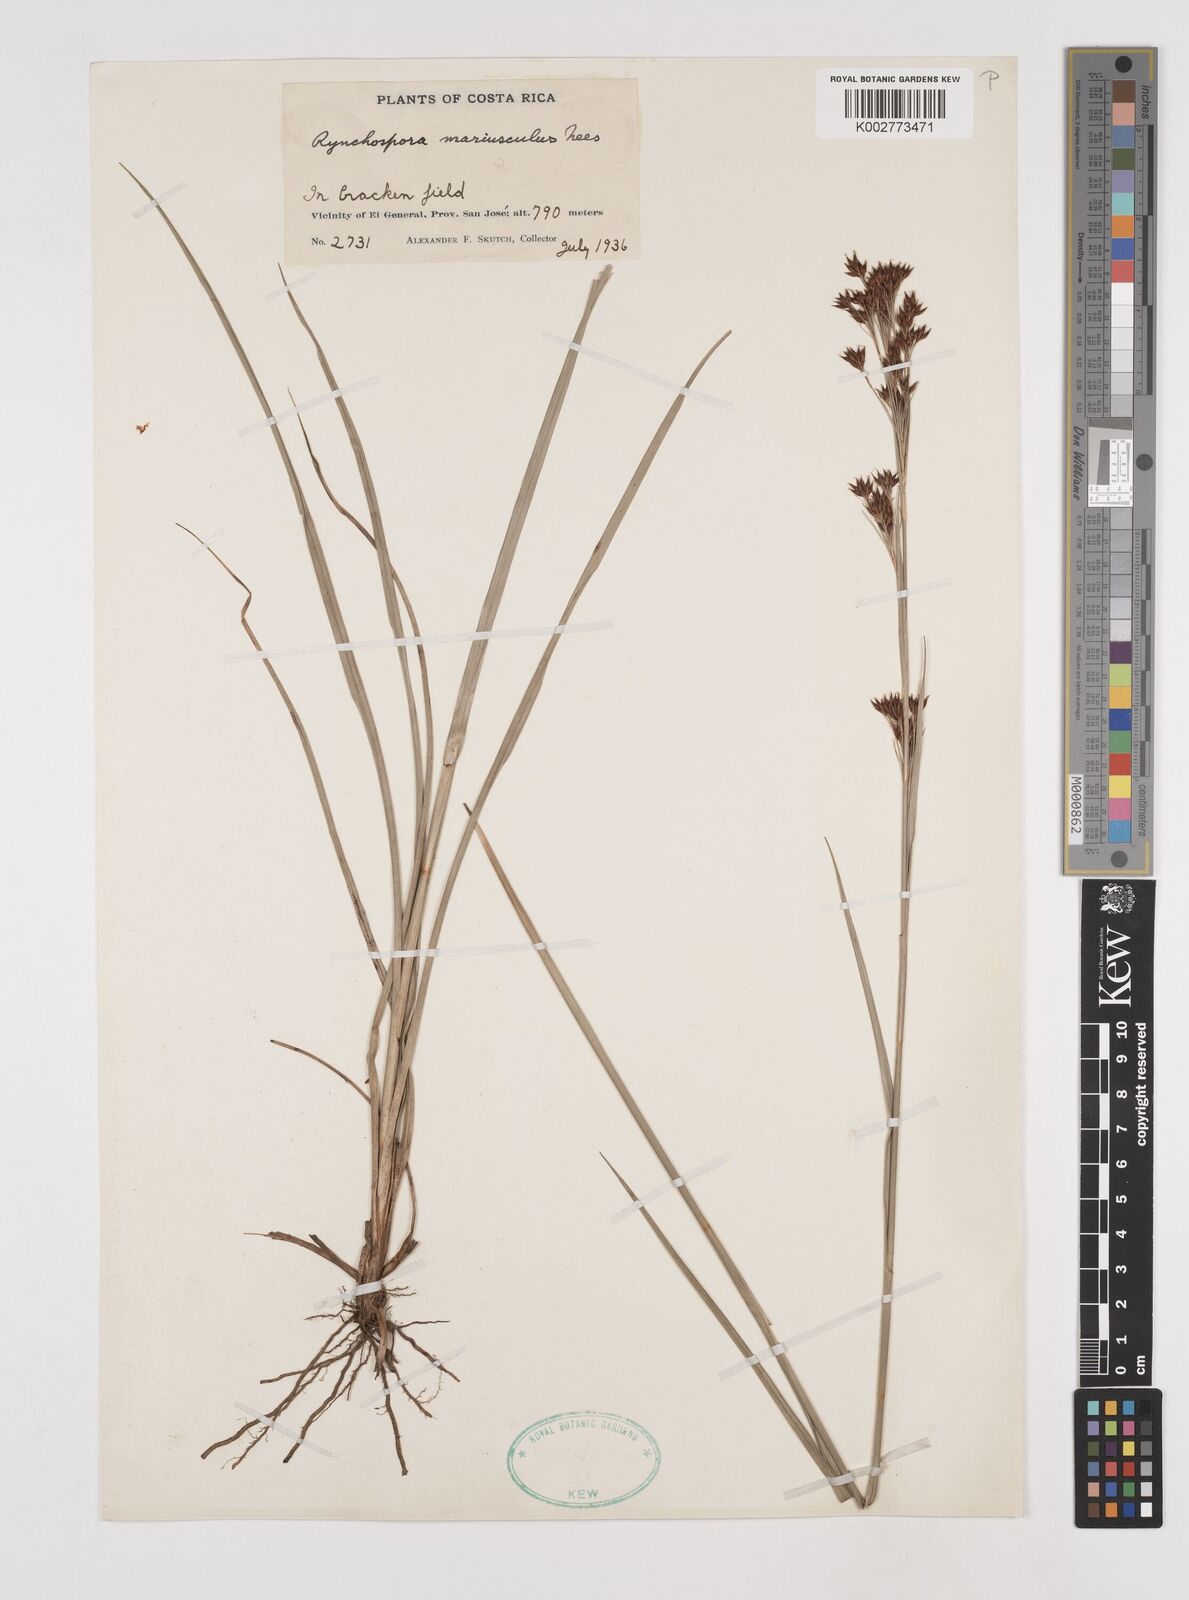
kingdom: Plantae
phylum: Tracheophyta
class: Liliopsida
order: Poales
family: Cyperaceae
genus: Rhynchospora
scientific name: Rhynchospora marisculus
